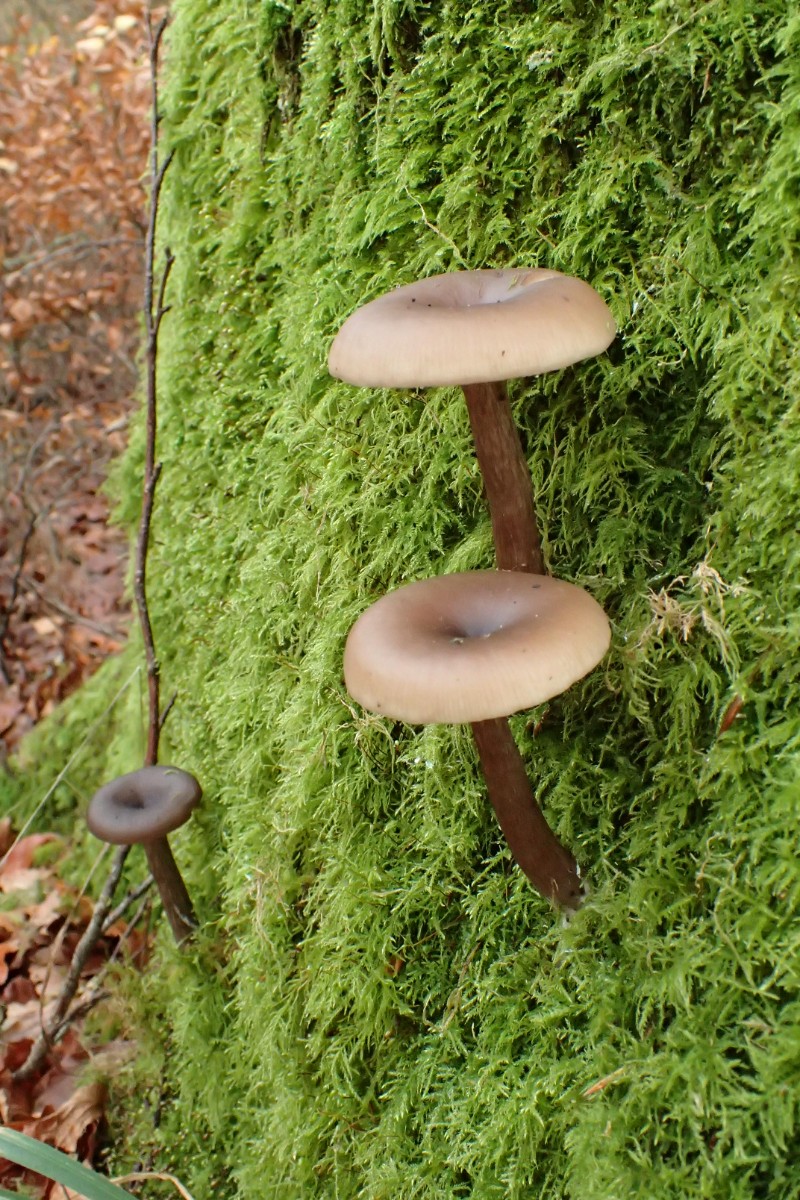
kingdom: Fungi
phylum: Basidiomycota
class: Agaricomycetes
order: Agaricales
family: Pseudoclitocybaceae
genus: Pseudoclitocybe
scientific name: Pseudoclitocybe cyathiformis
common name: almindelig bægertragthat
